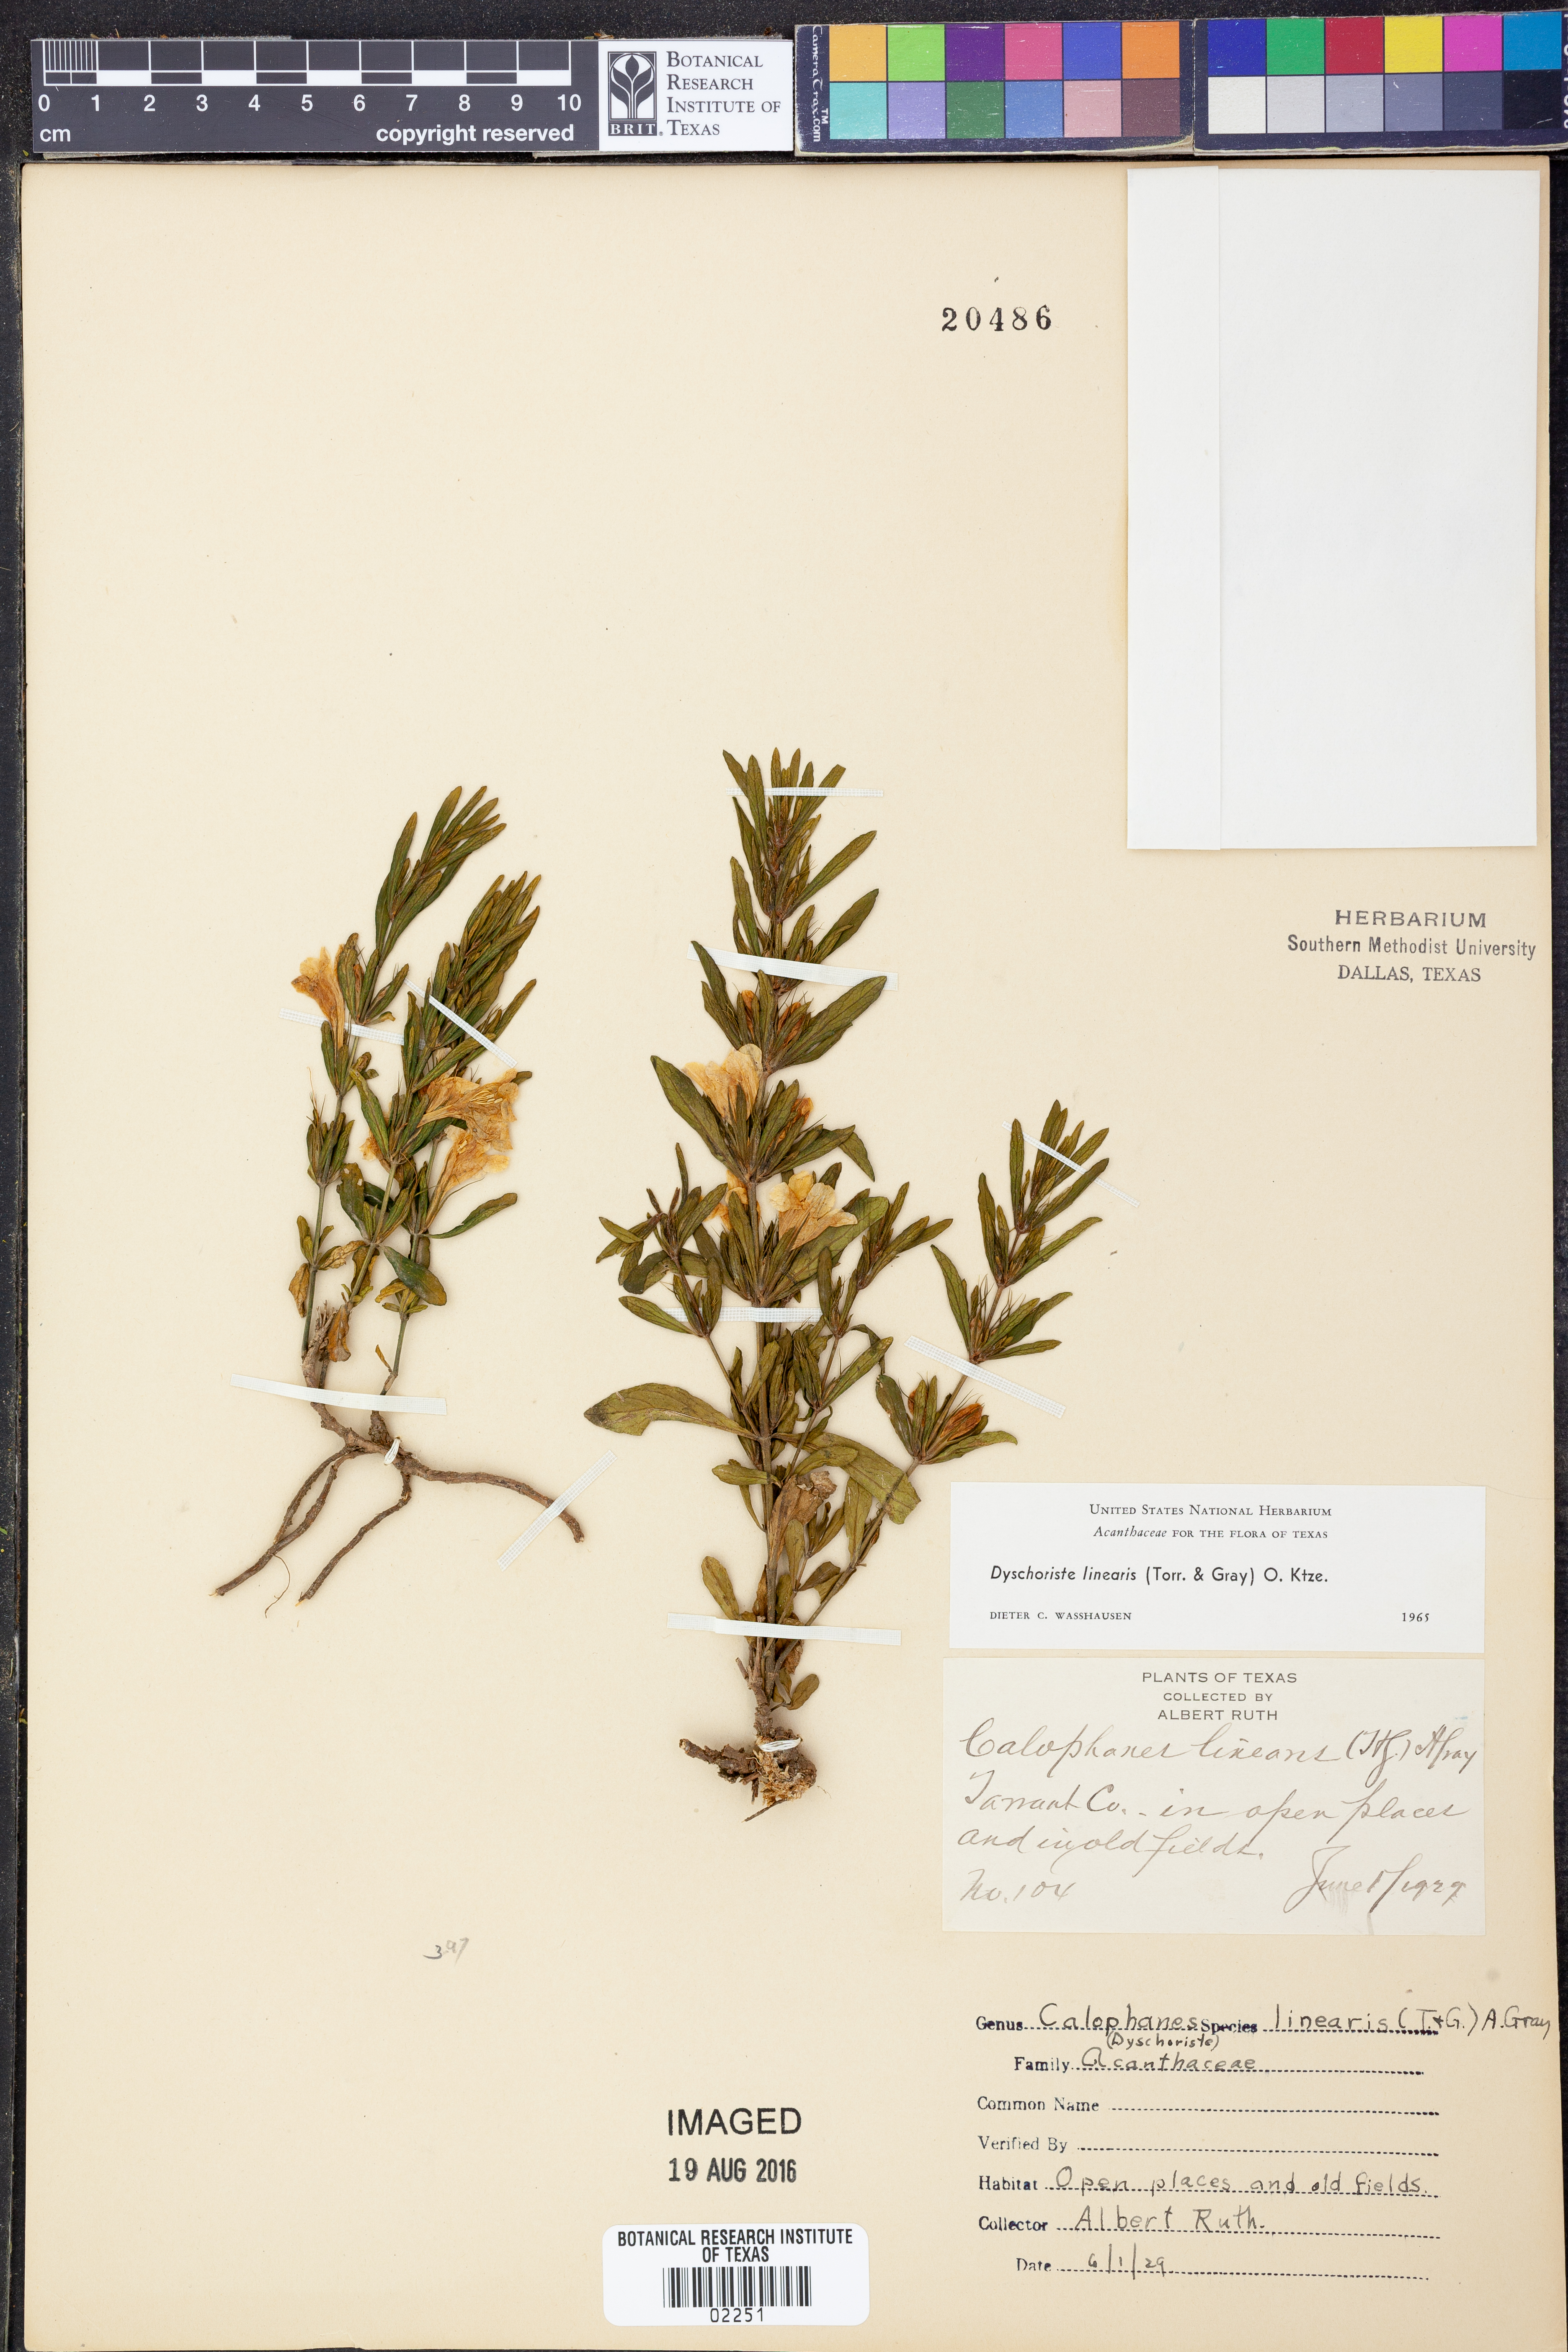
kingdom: Plantae
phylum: Tracheophyta
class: Magnoliopsida
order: Lamiales
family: Acanthaceae
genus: Dyschoriste
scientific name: Dyschoriste linearis
